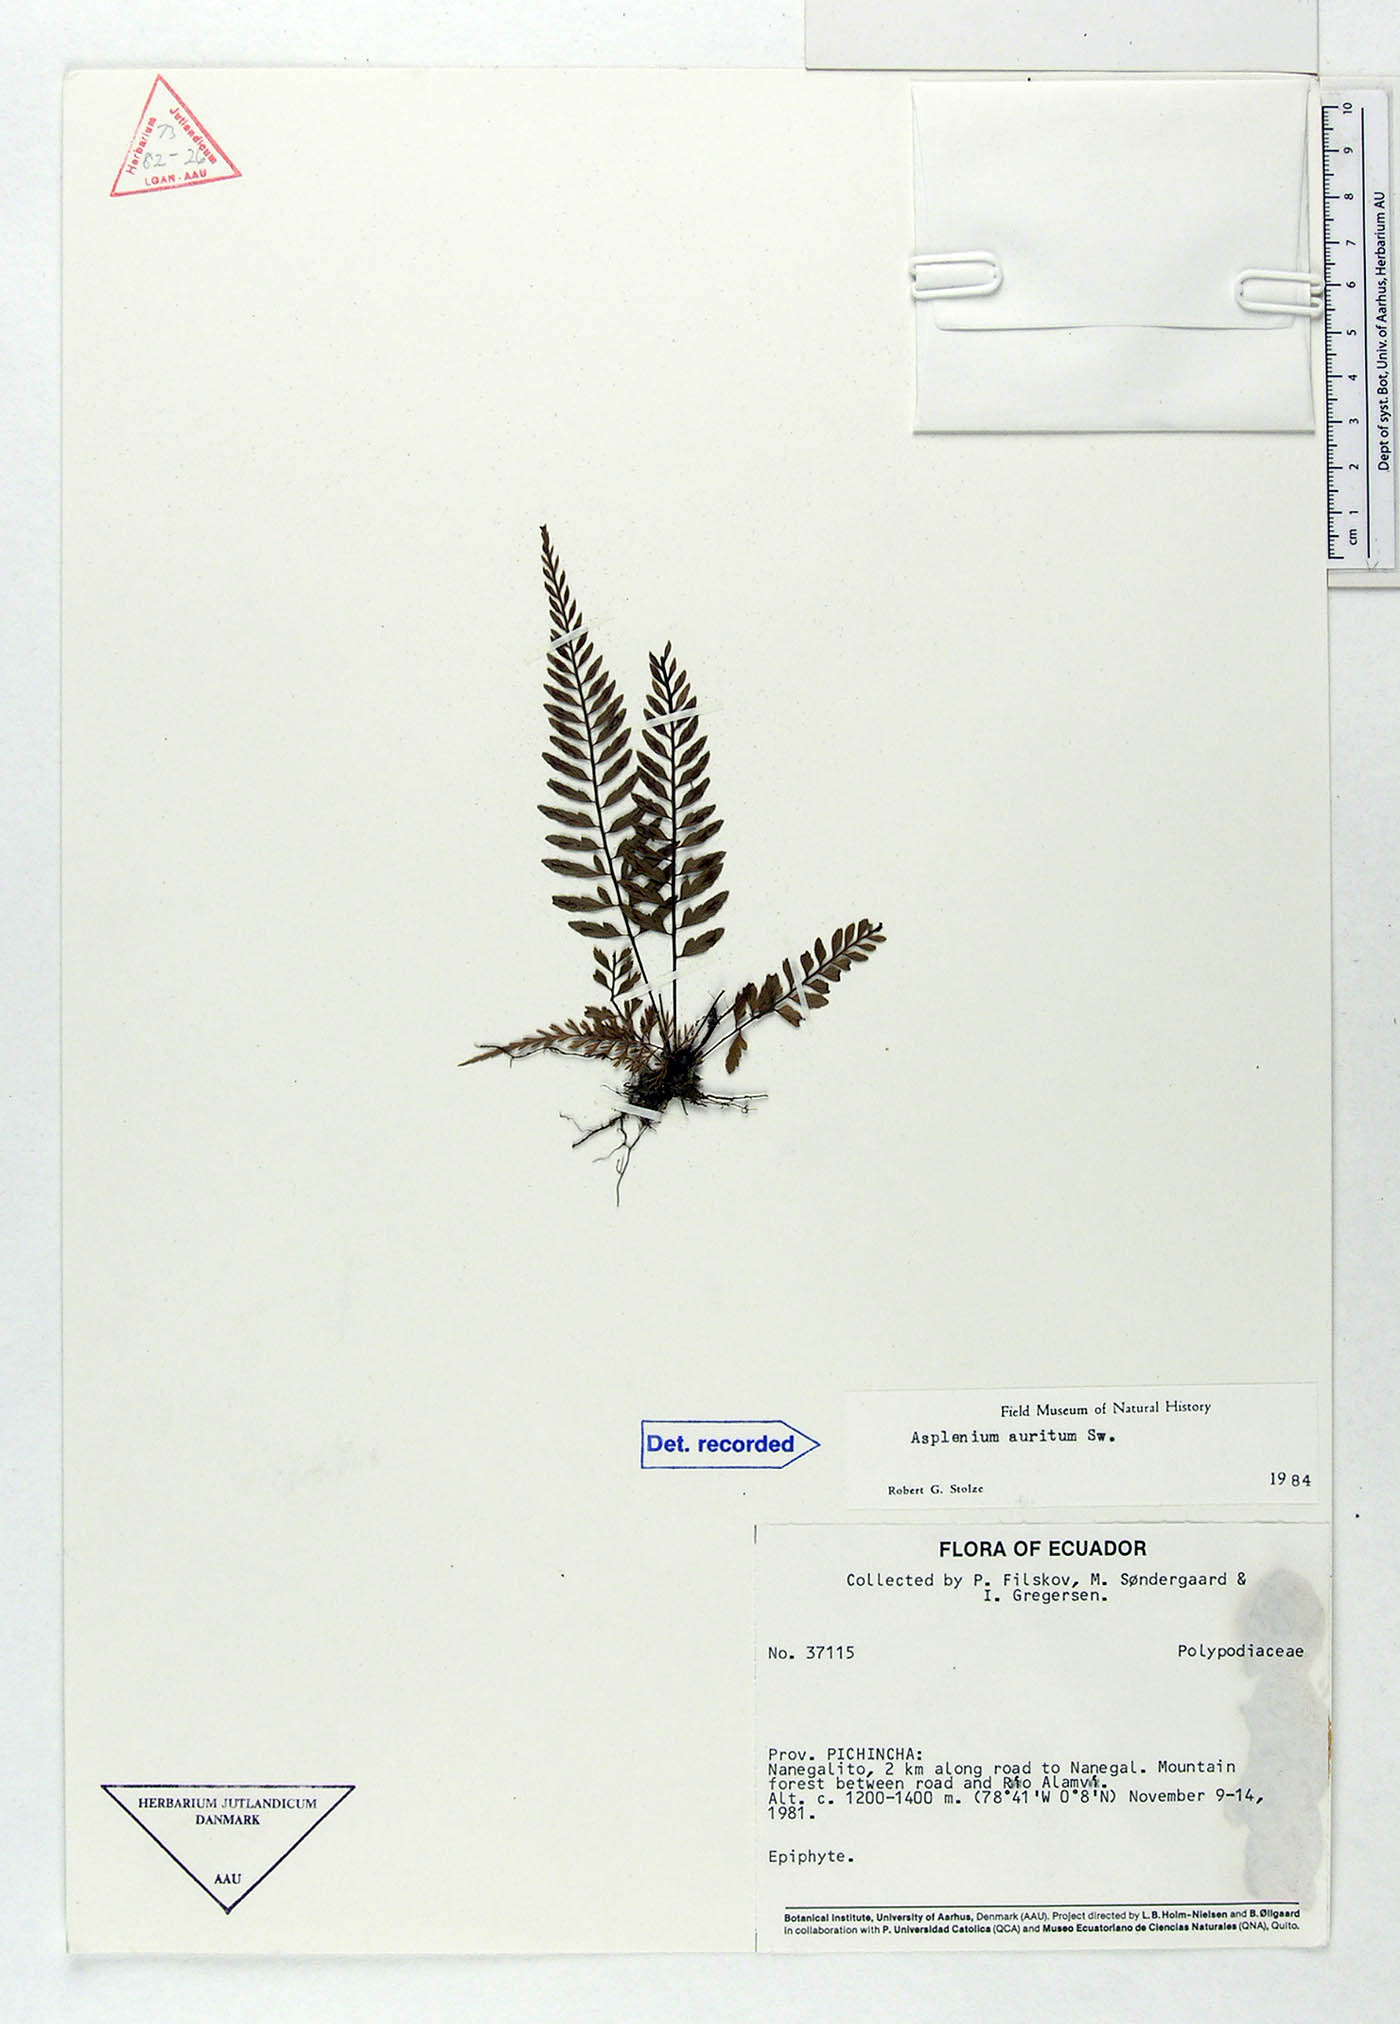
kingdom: Plantae
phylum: Tracheophyta
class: Polypodiopsida
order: Polypodiales
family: Aspleniaceae
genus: Asplenium
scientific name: Asplenium auritum
